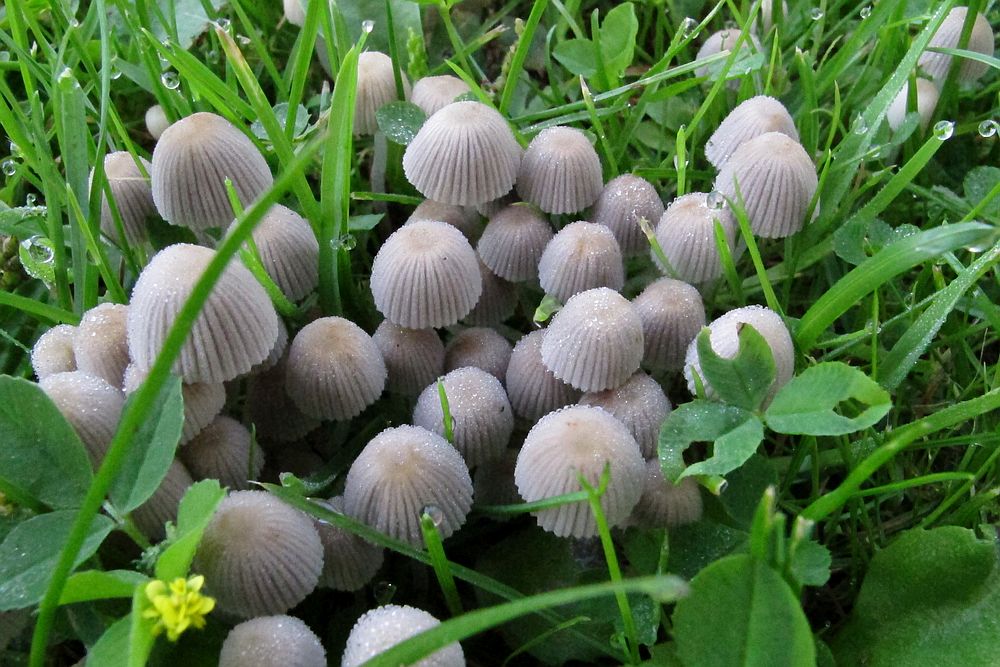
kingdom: Fungi
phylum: Basidiomycota
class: Agaricomycetes
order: Agaricales
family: Psathyrellaceae
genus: Coprinellus
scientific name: Coprinellus disseminatus
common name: bredsået blækhat
